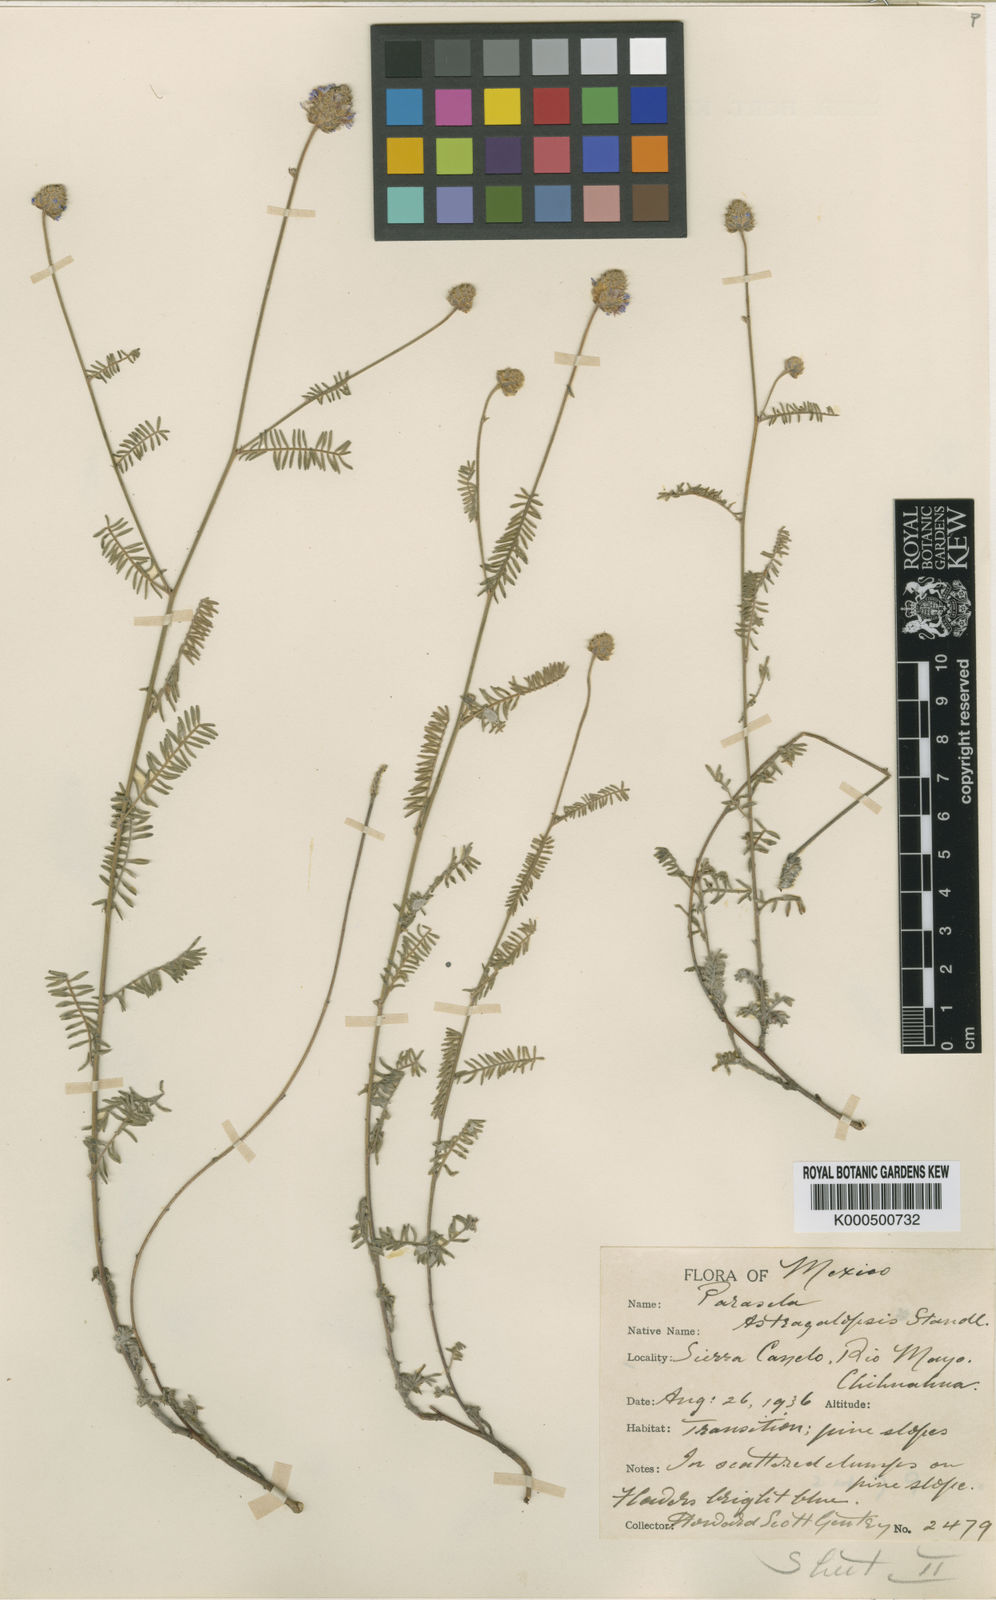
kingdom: Plantae
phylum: Tracheophyta
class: Magnoliopsida
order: Fabales
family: Fabaceae
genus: Dalea
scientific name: Dalea lumholtzii
